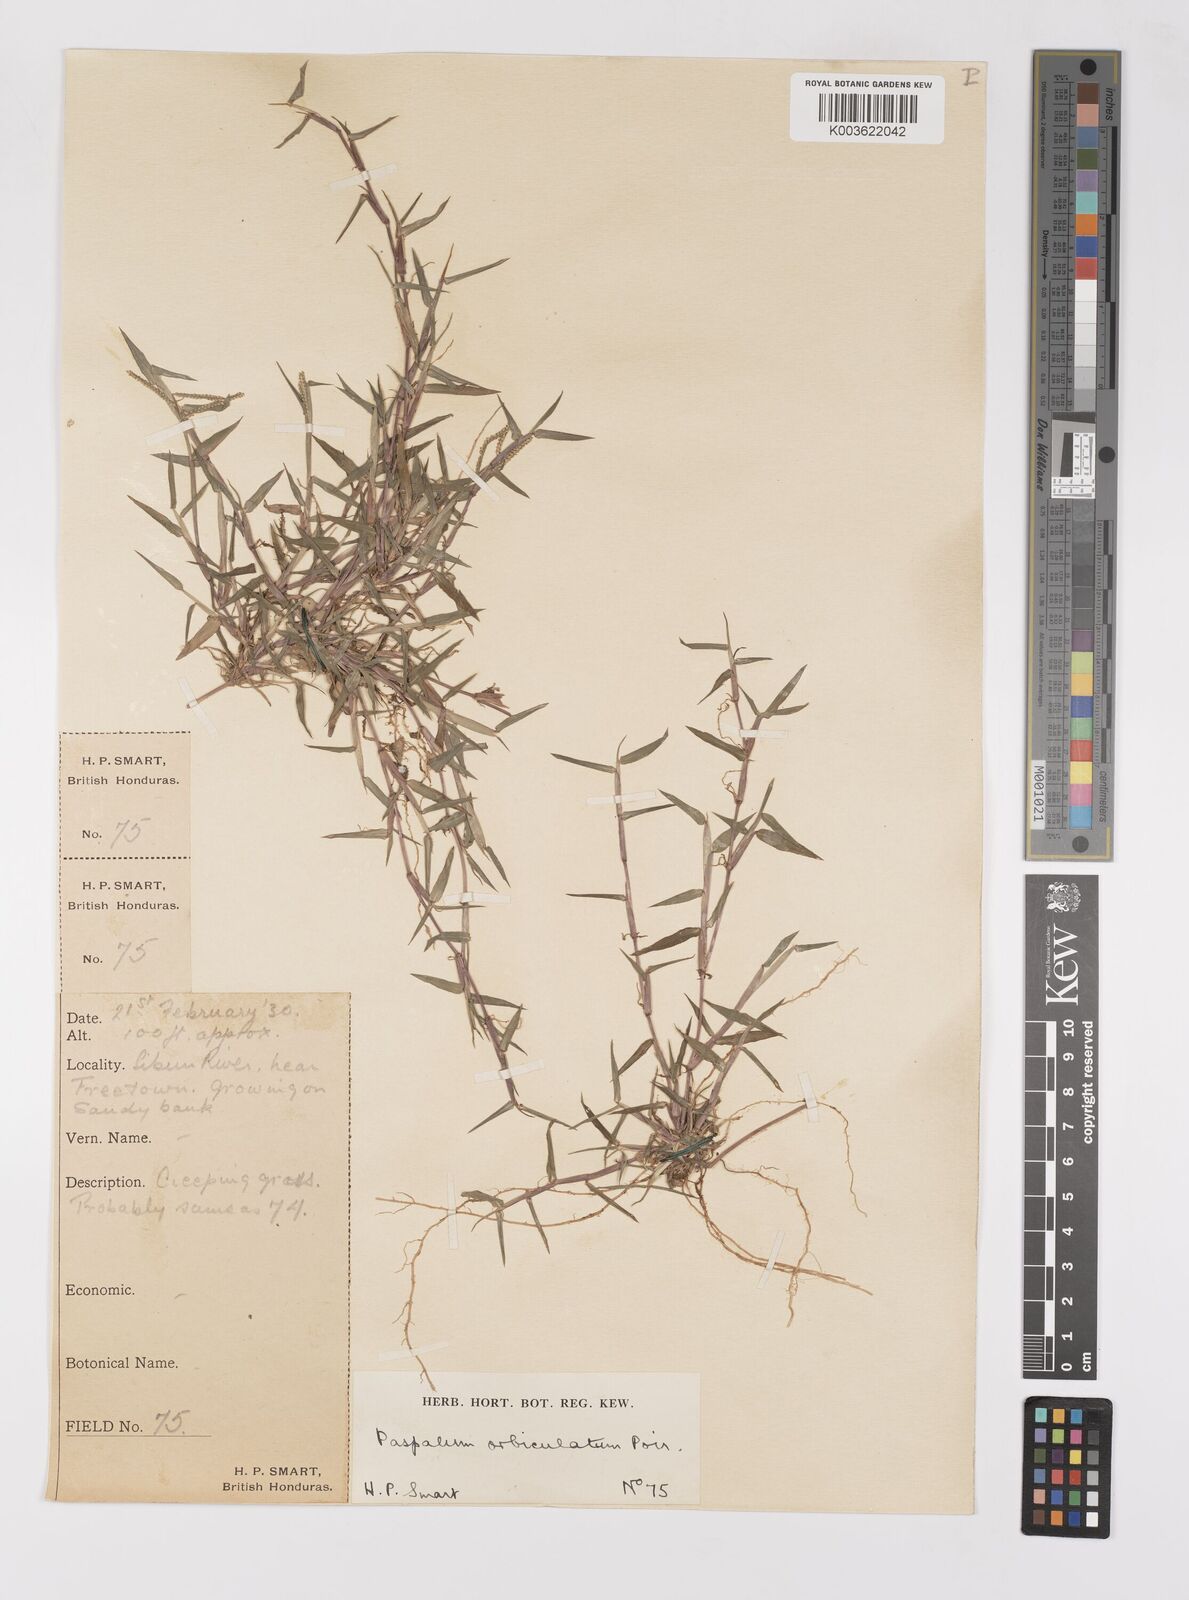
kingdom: Plantae
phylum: Tracheophyta
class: Liliopsida
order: Poales
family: Poaceae
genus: Paspalum
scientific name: Paspalum orbiculatum
